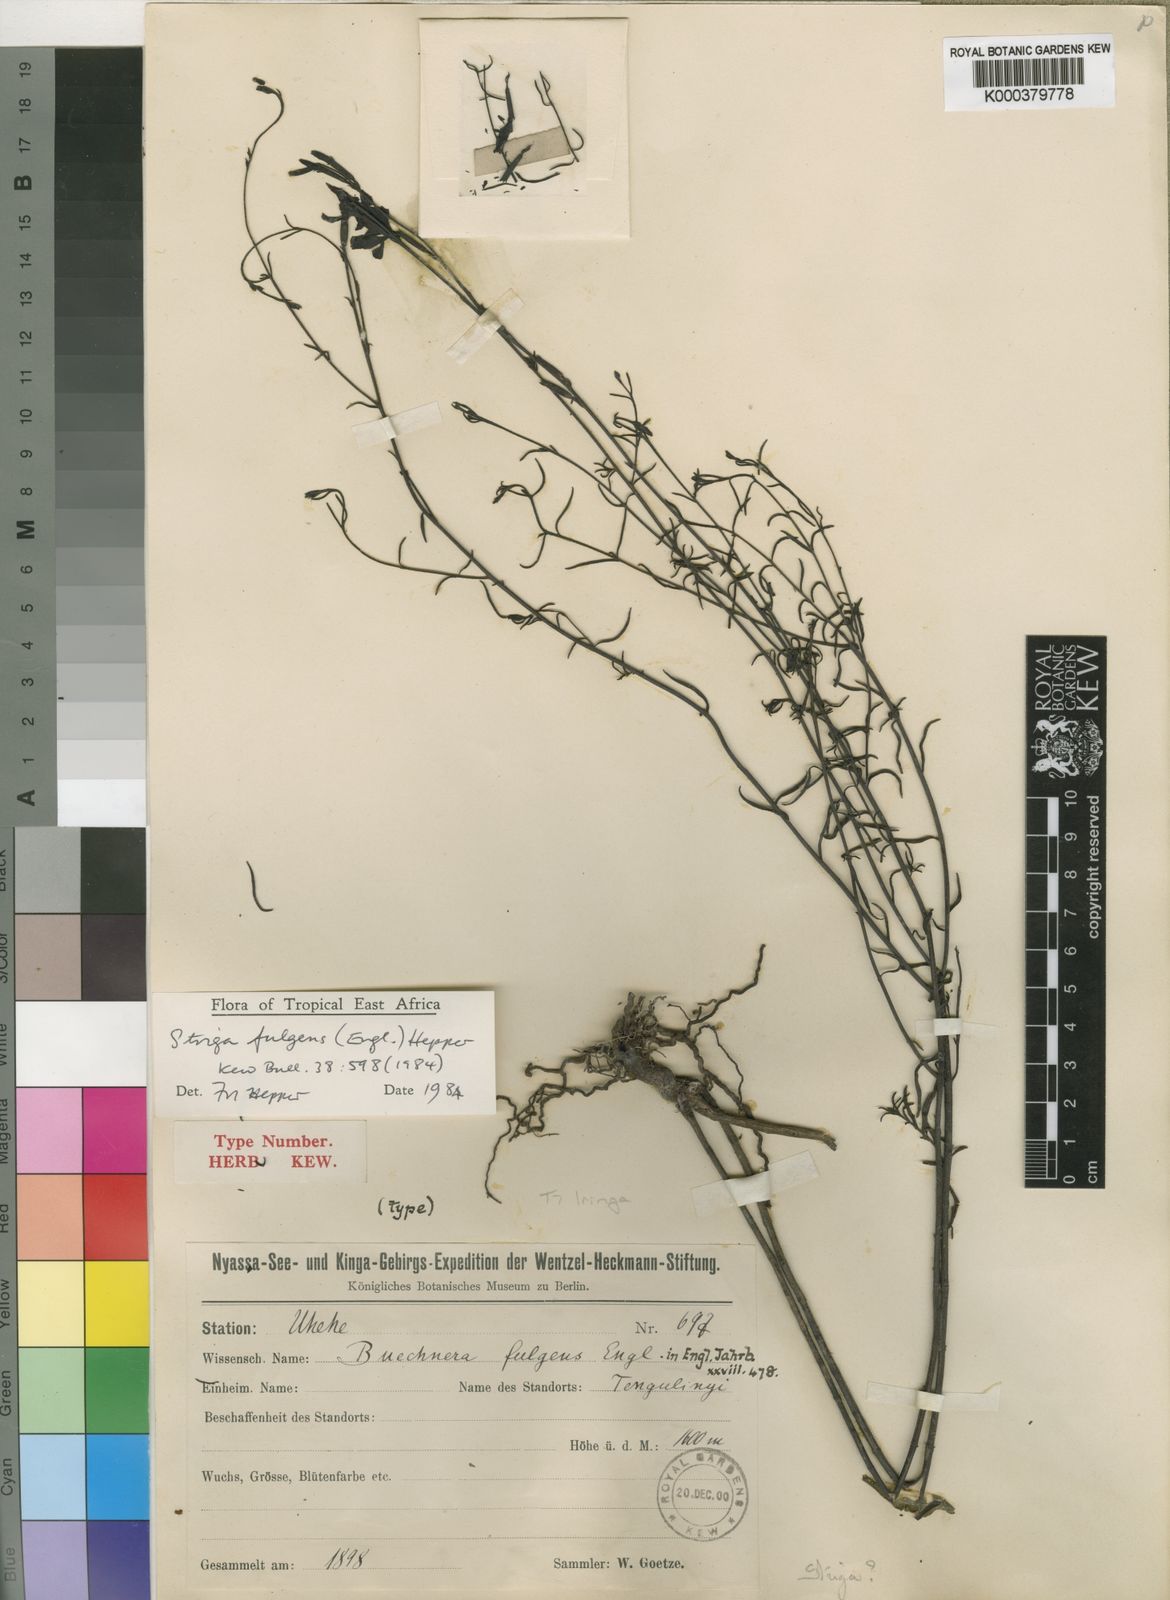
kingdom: Plantae
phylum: Tracheophyta
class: Magnoliopsida
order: Lamiales
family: Orobanchaceae
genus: Striga
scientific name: Striga fulgens
